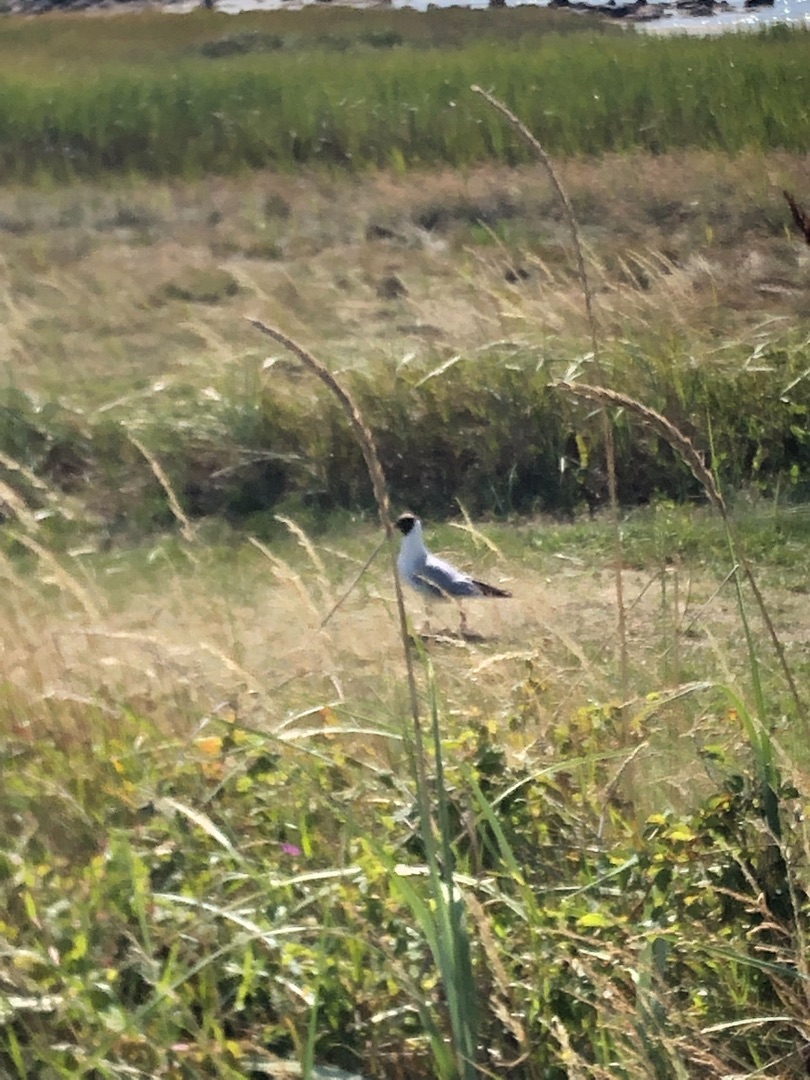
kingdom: Animalia
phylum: Chordata
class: Aves
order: Charadriiformes
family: Laridae
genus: Chroicocephalus
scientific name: Chroicocephalus ridibundus
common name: Hættemåge
